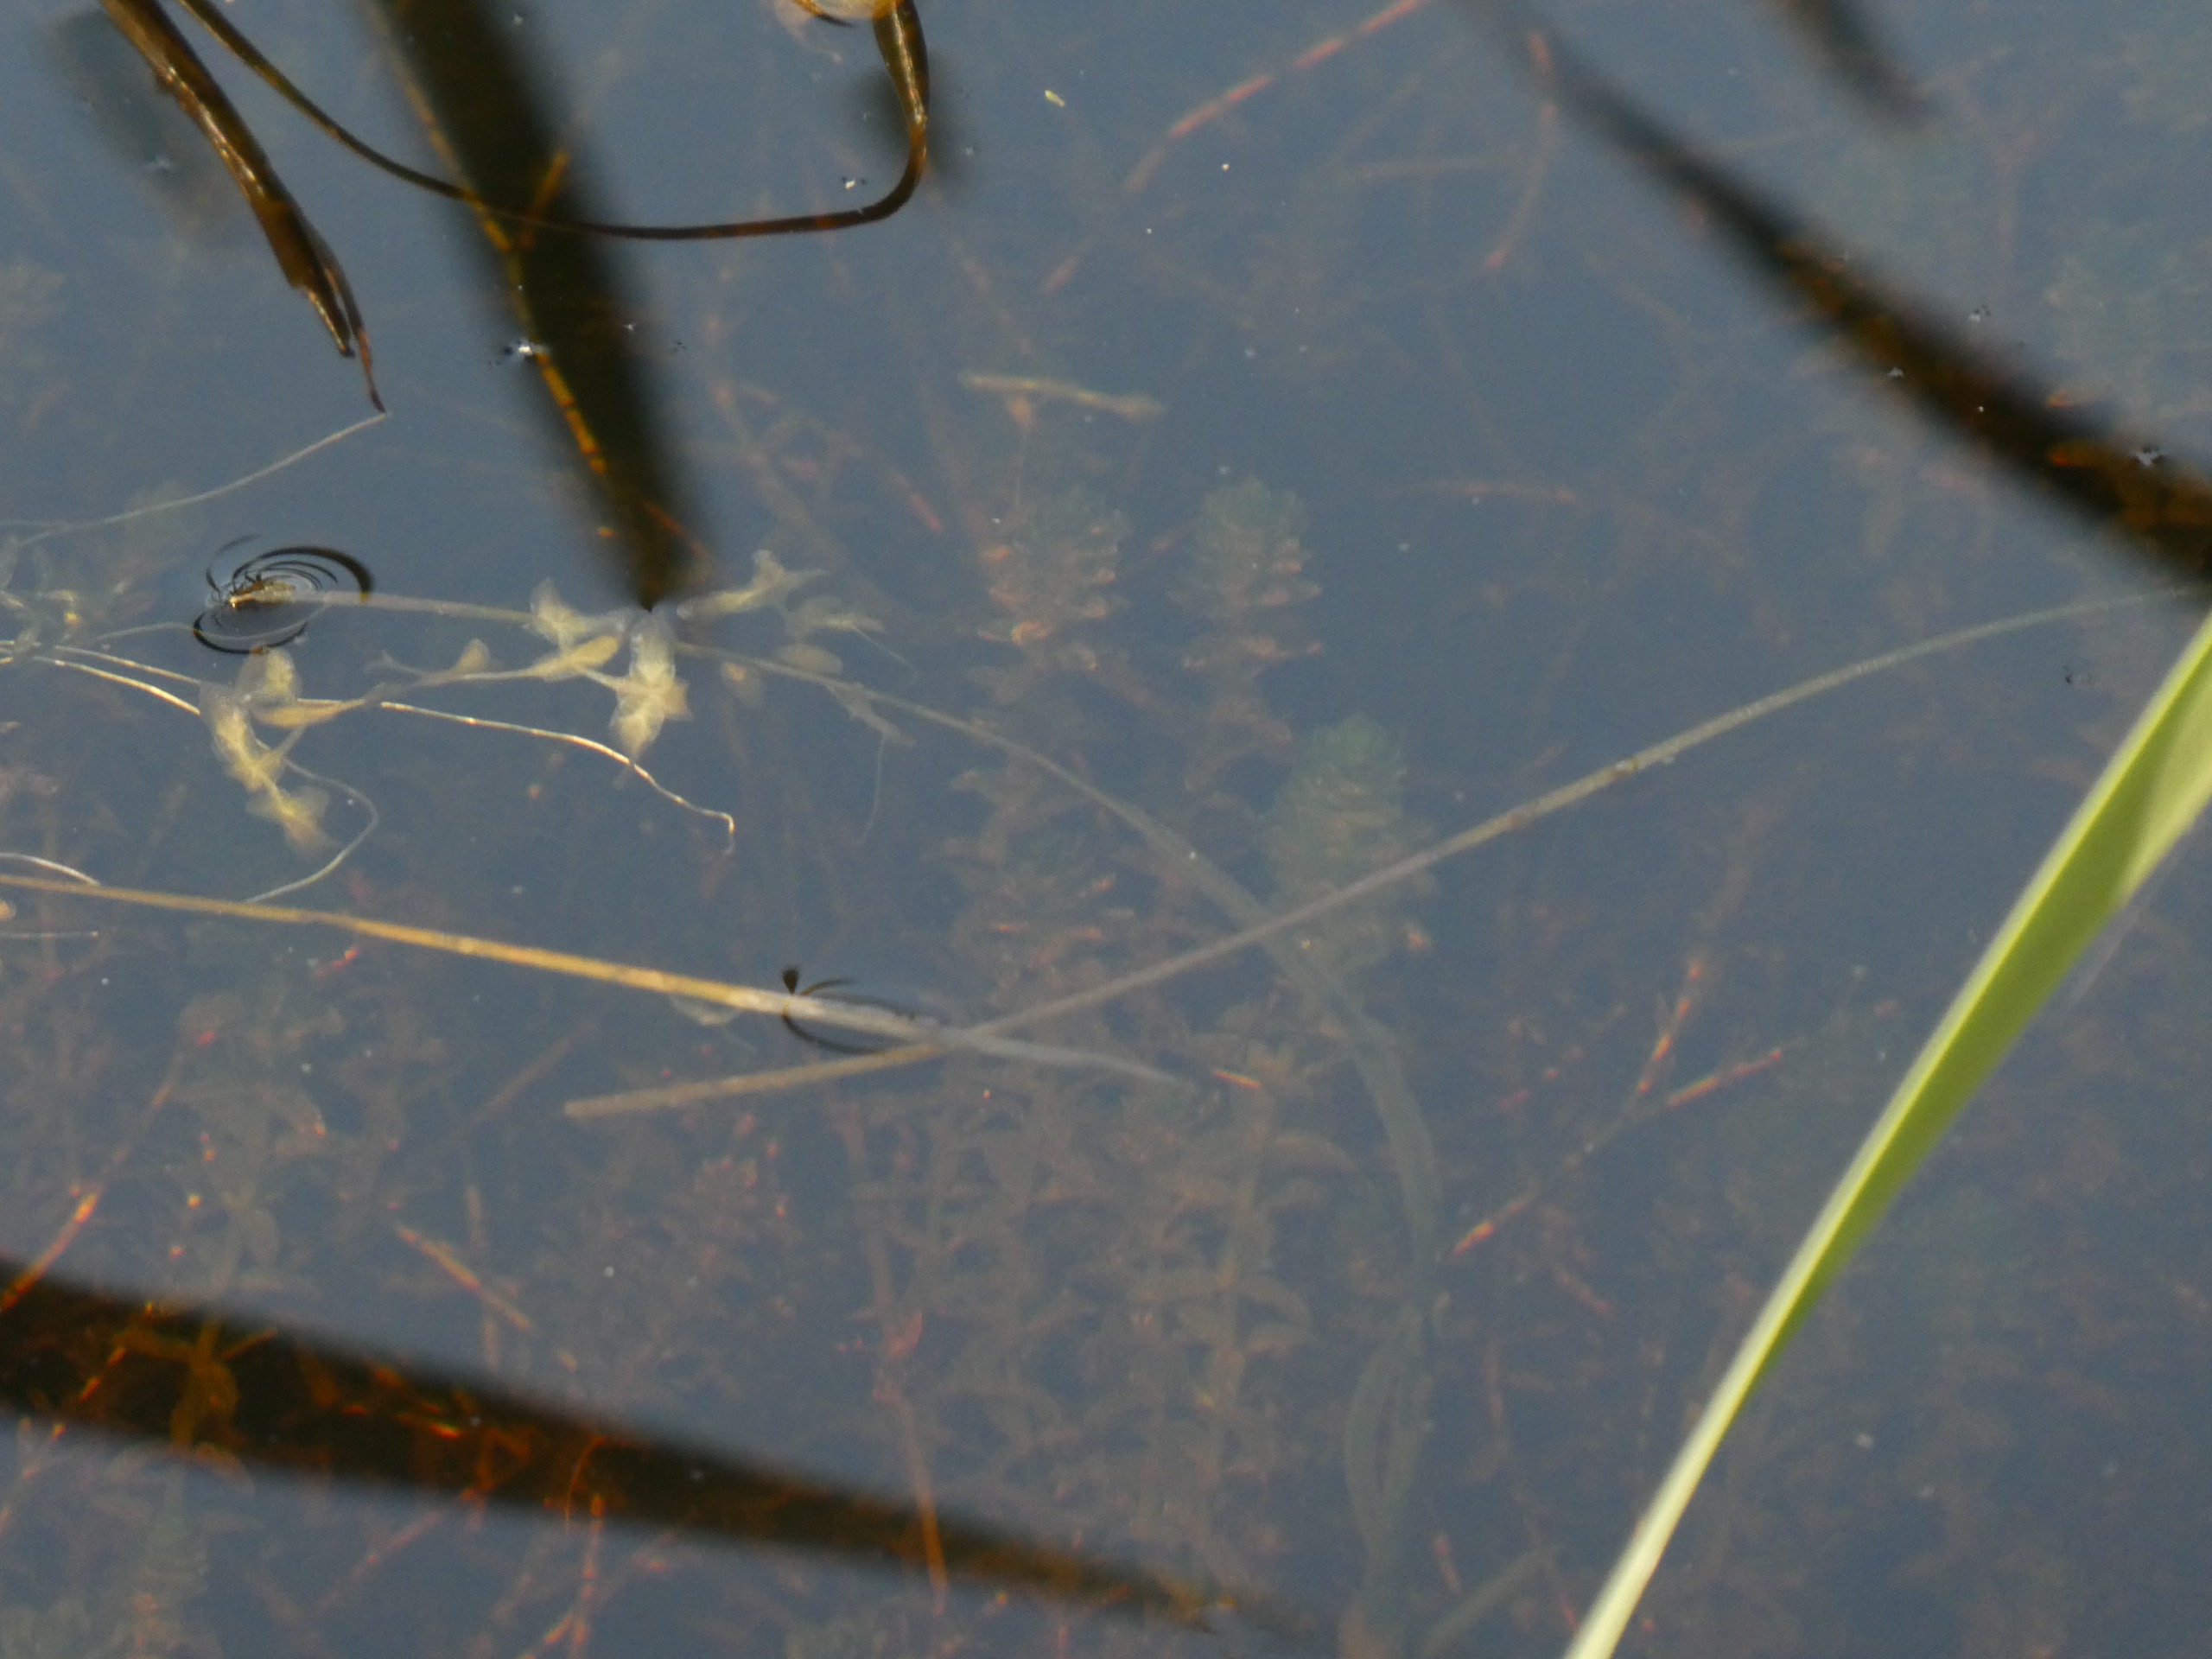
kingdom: Plantae
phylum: Tracheophyta
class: Liliopsida
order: Alismatales
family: Hydrocharitaceae
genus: Elodea
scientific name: Elodea canadensis
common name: Vandpest
